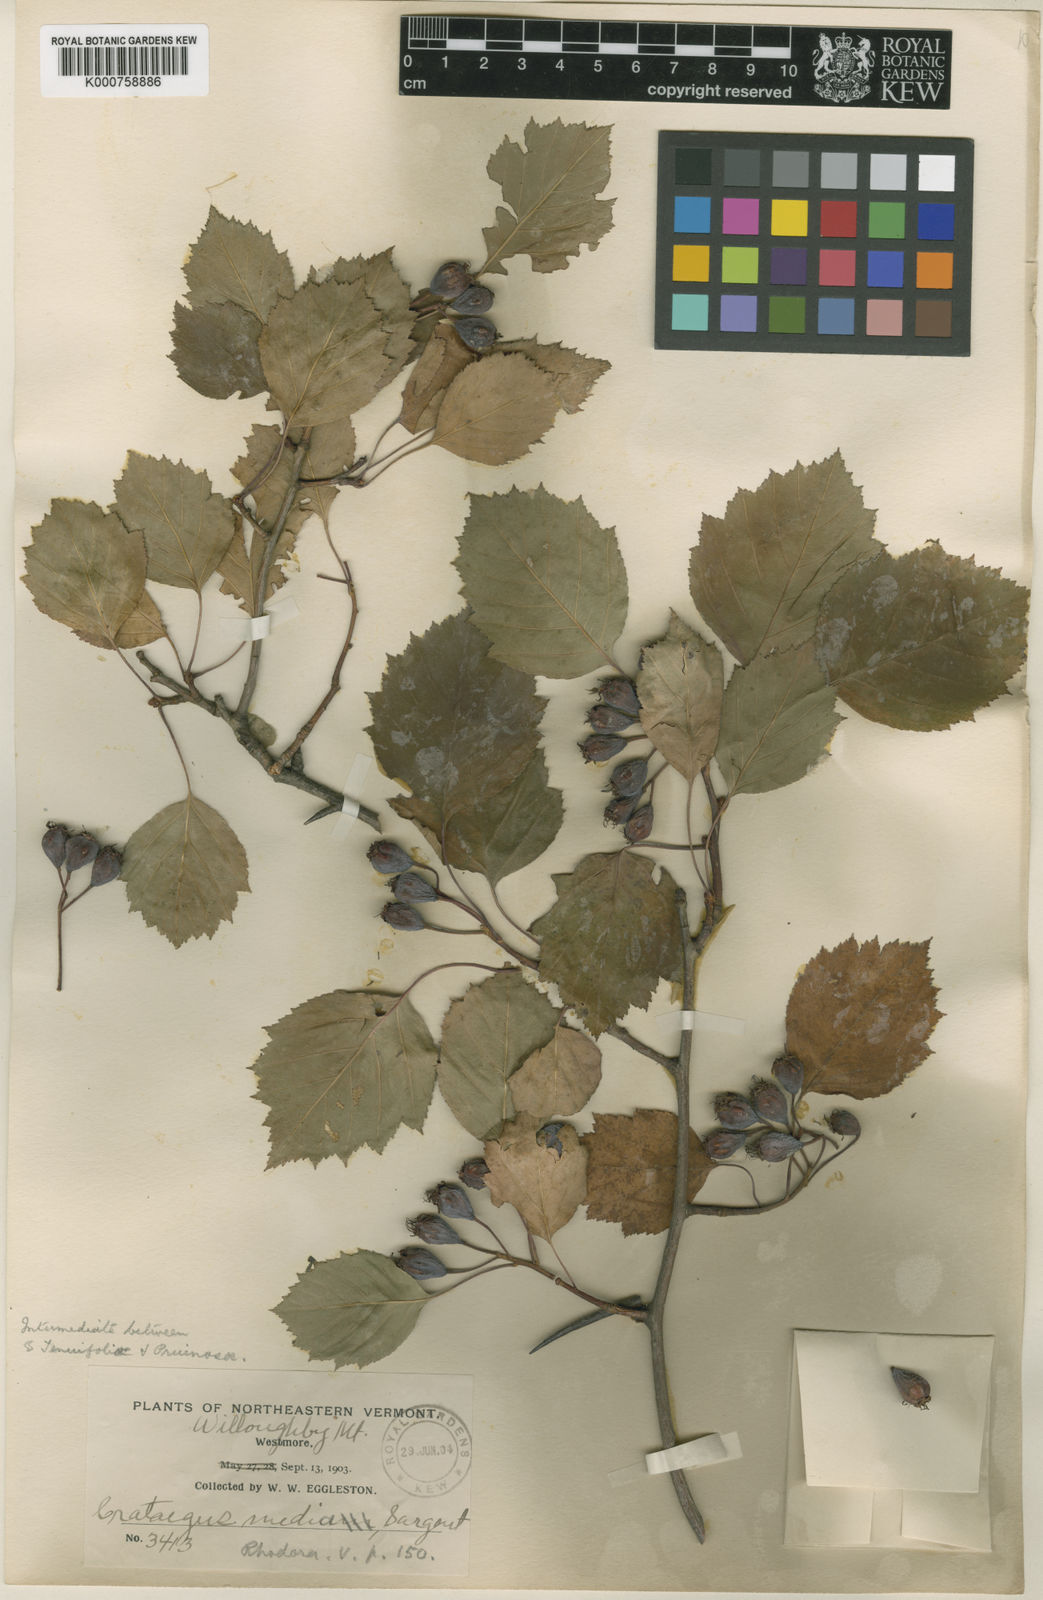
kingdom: Plantae
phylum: Tracheophyta
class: Magnoliopsida
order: Rosales
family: Rosaceae
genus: Crataegus
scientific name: Crataegus haemacarpa
